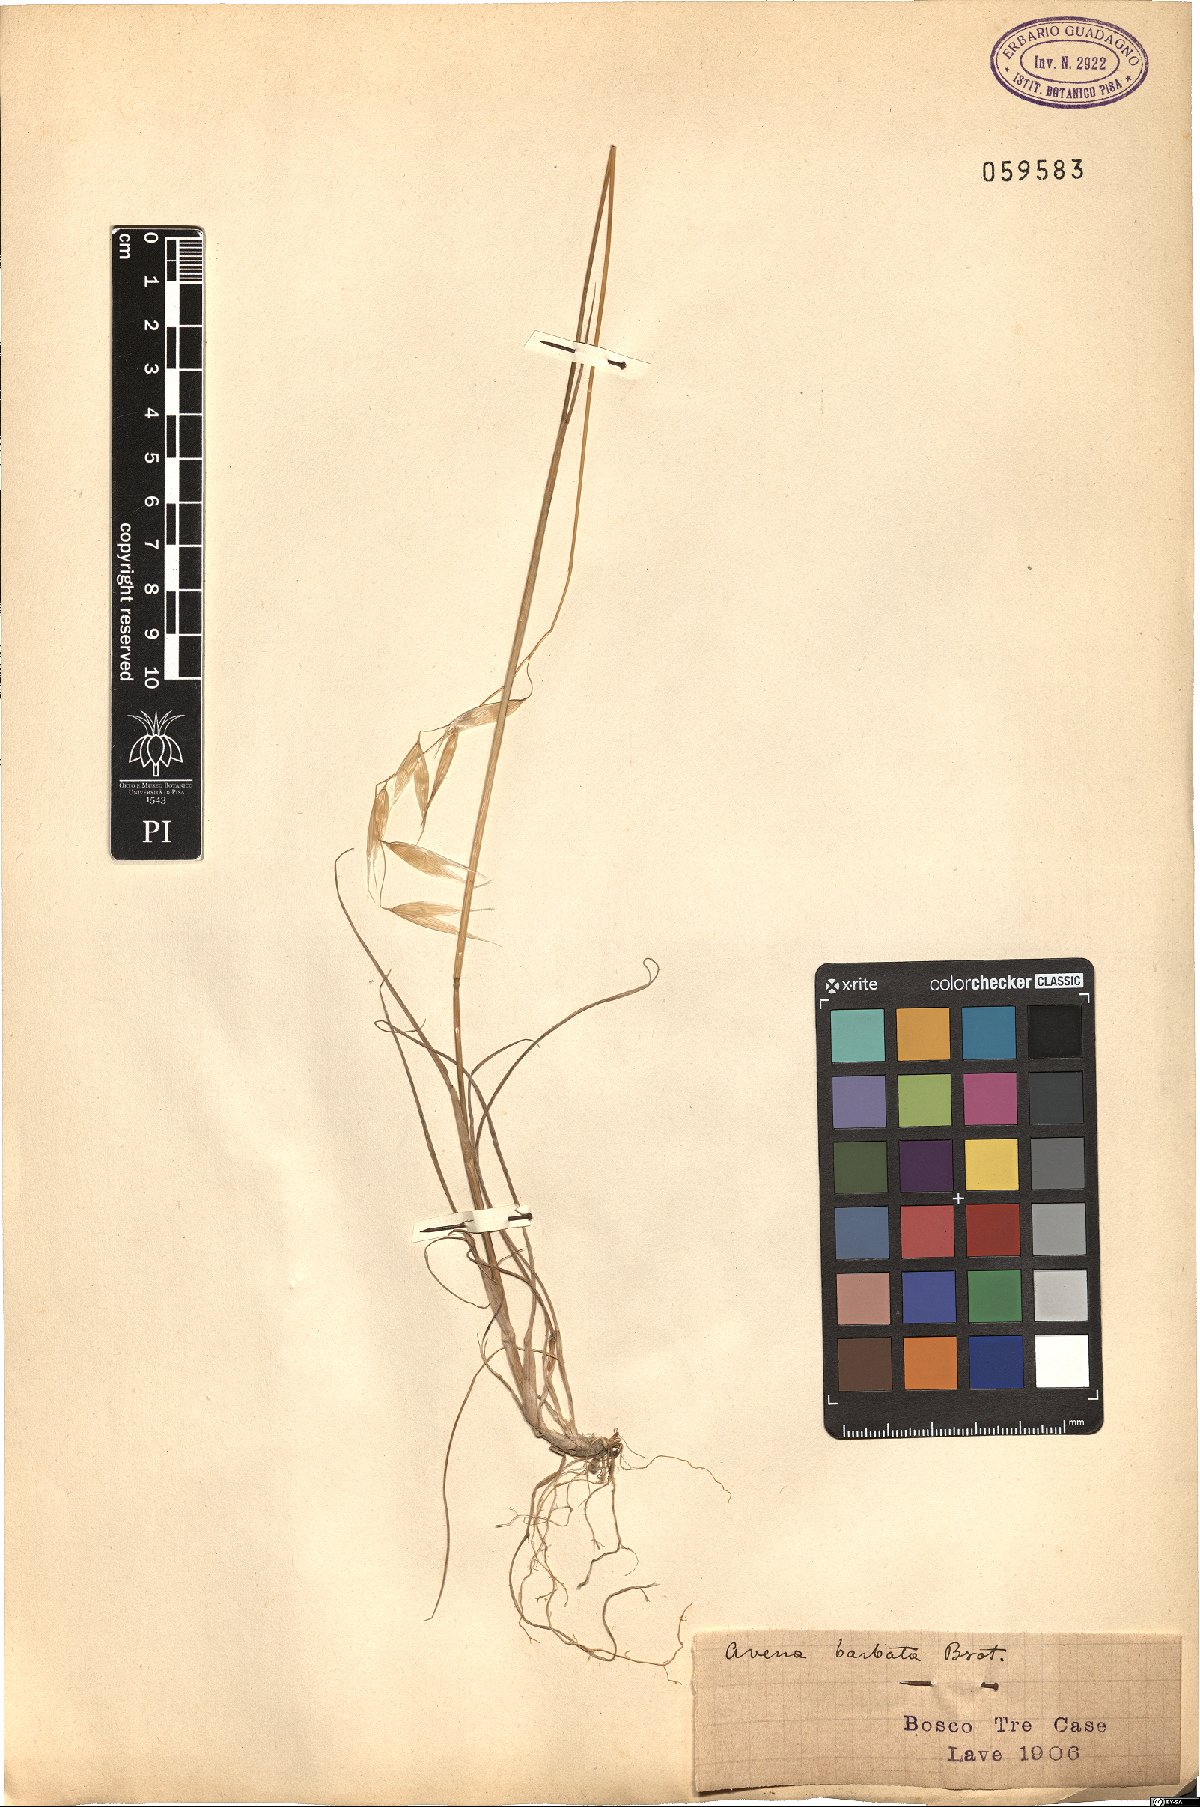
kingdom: Plantae
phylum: Tracheophyta
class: Liliopsida
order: Poales
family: Poaceae
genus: Avena
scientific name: Avena barbata
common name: Slender oat
